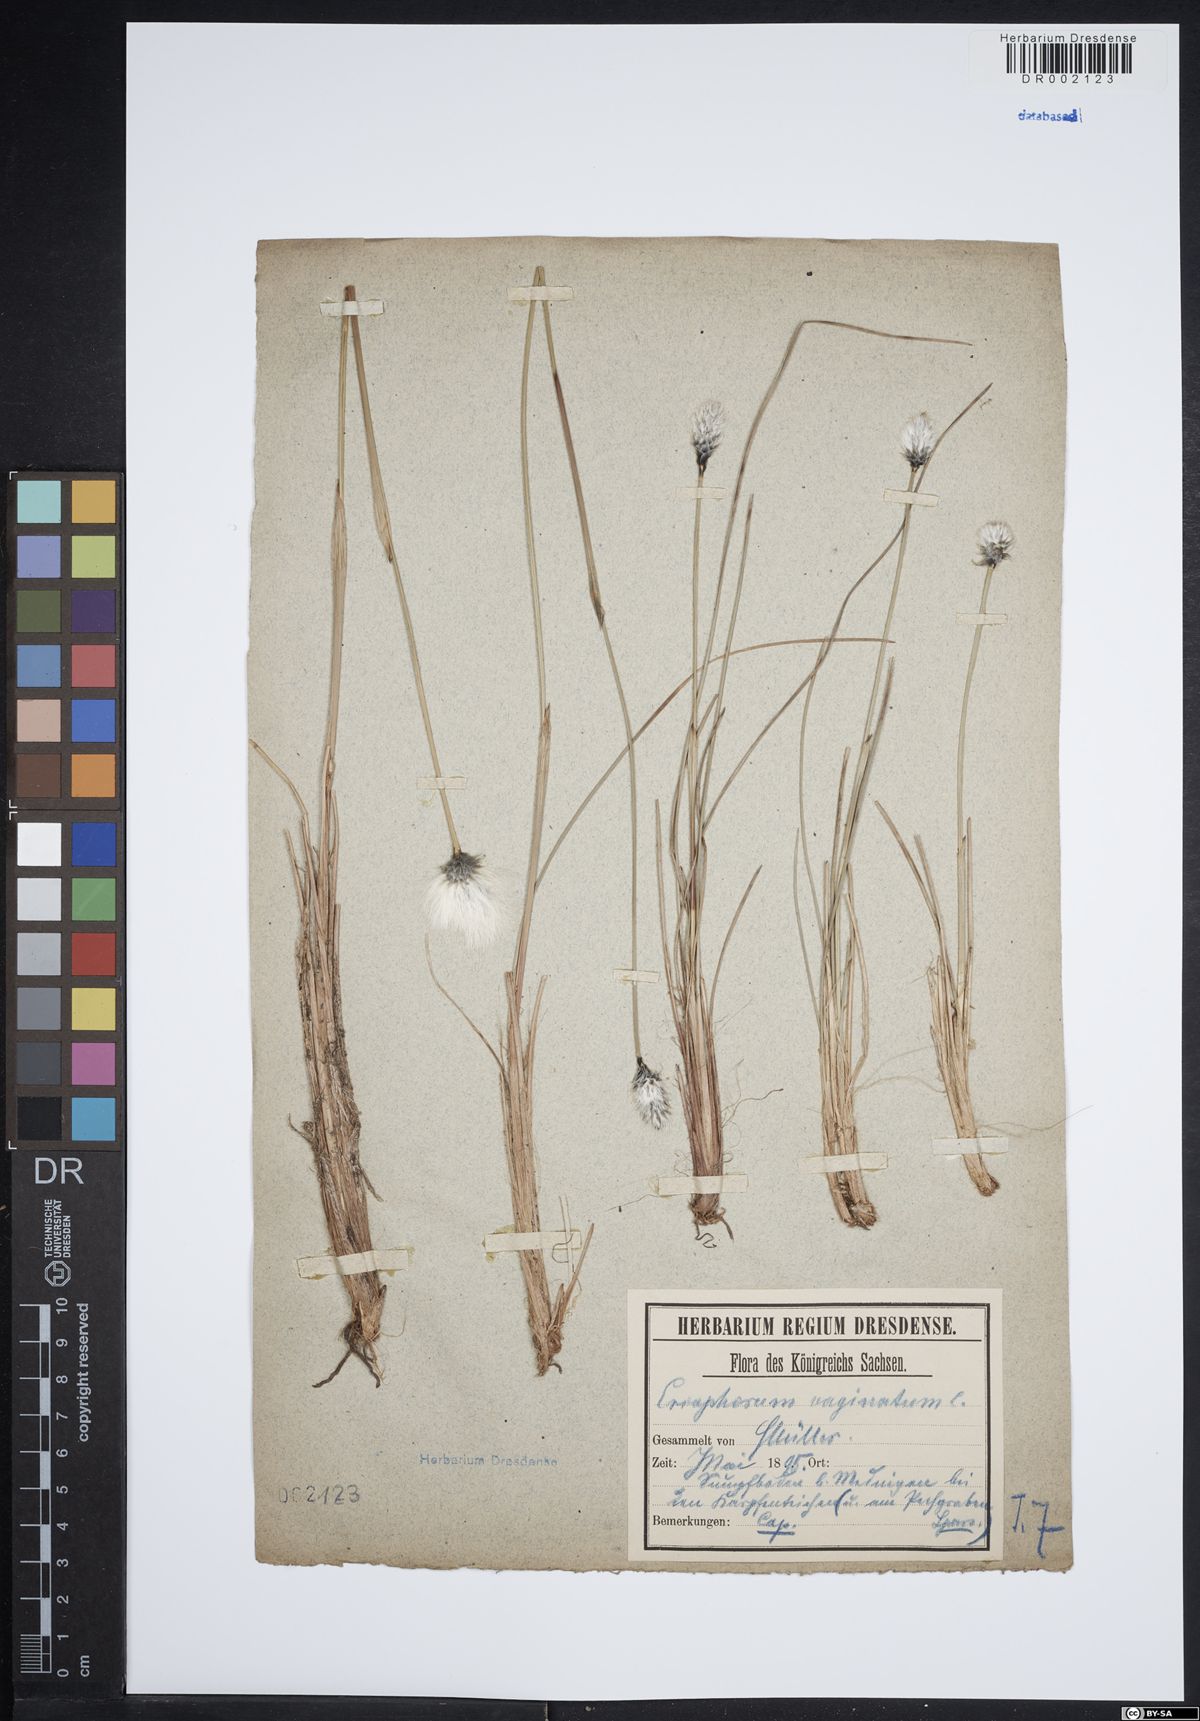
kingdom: Plantae
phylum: Tracheophyta
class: Liliopsida
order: Poales
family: Cyperaceae
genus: Eriophorum
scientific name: Eriophorum vaginatum
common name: Hare's-tail cottongrass
